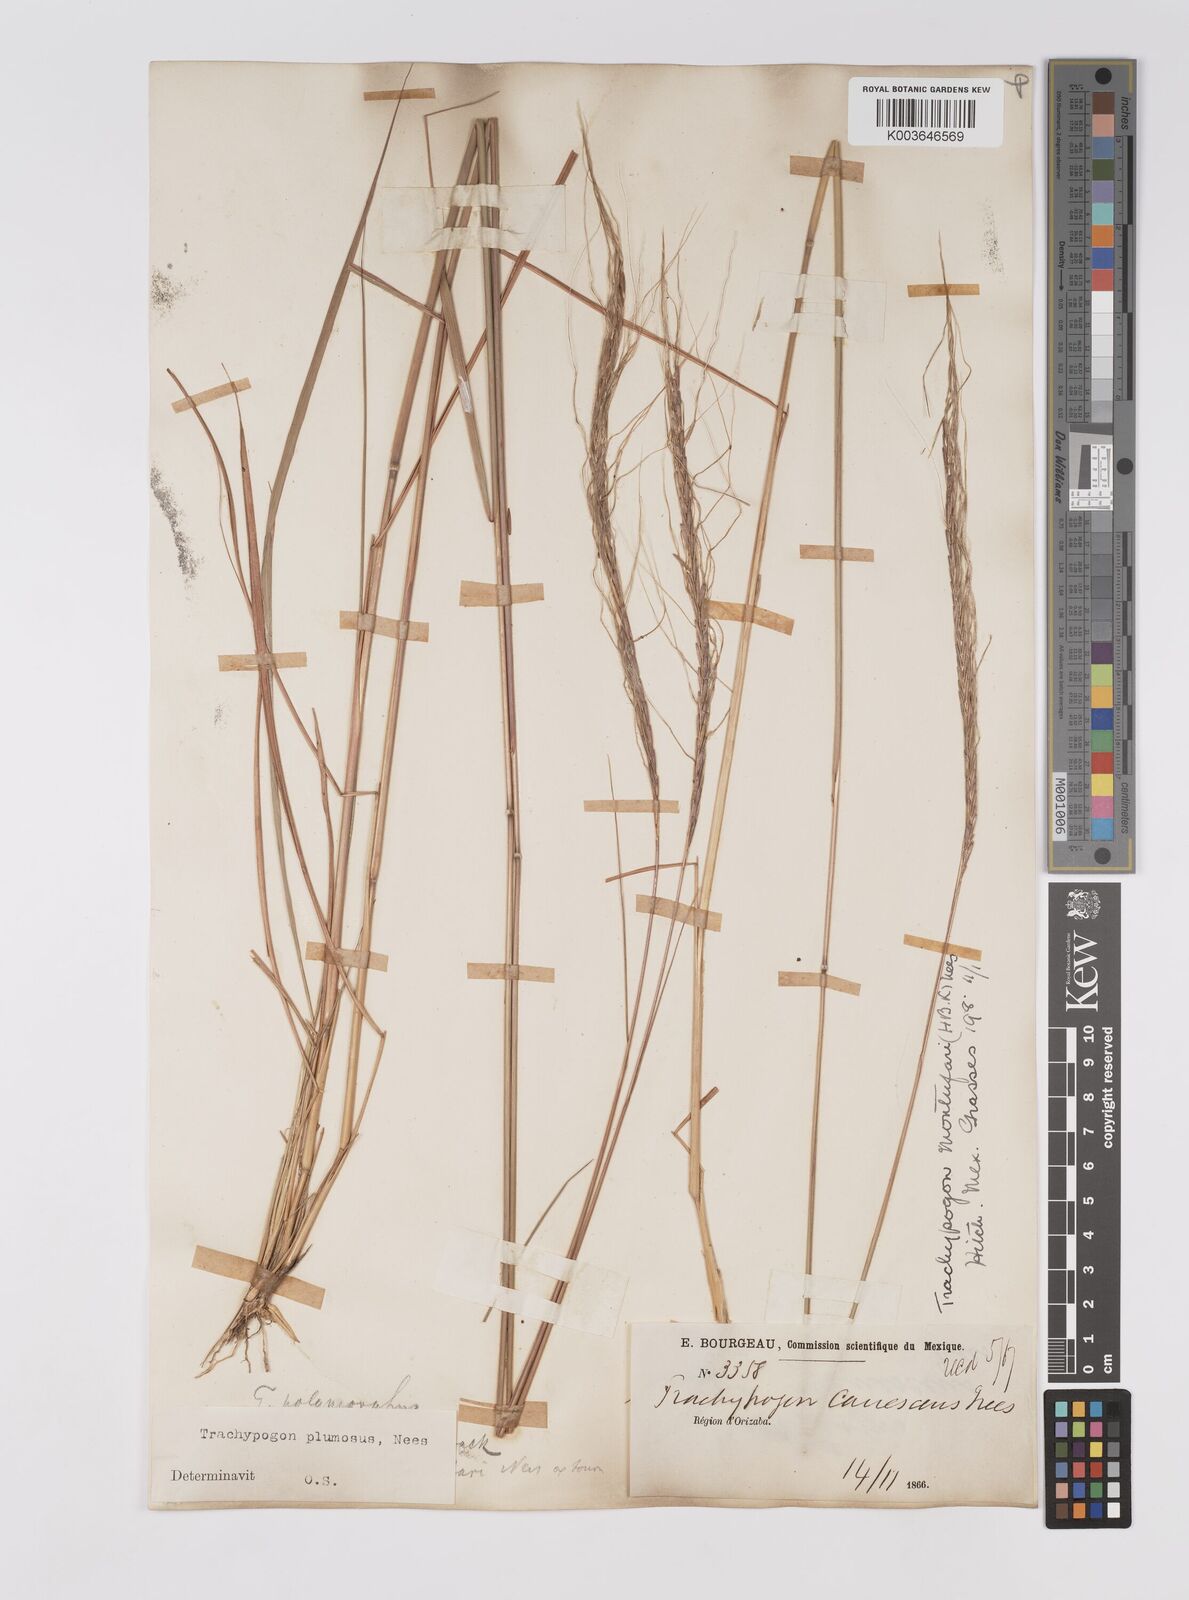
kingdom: Plantae
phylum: Tracheophyta
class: Liliopsida
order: Poales
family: Poaceae
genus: Trachypogon
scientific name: Trachypogon spicatus
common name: Crinkle-awn
